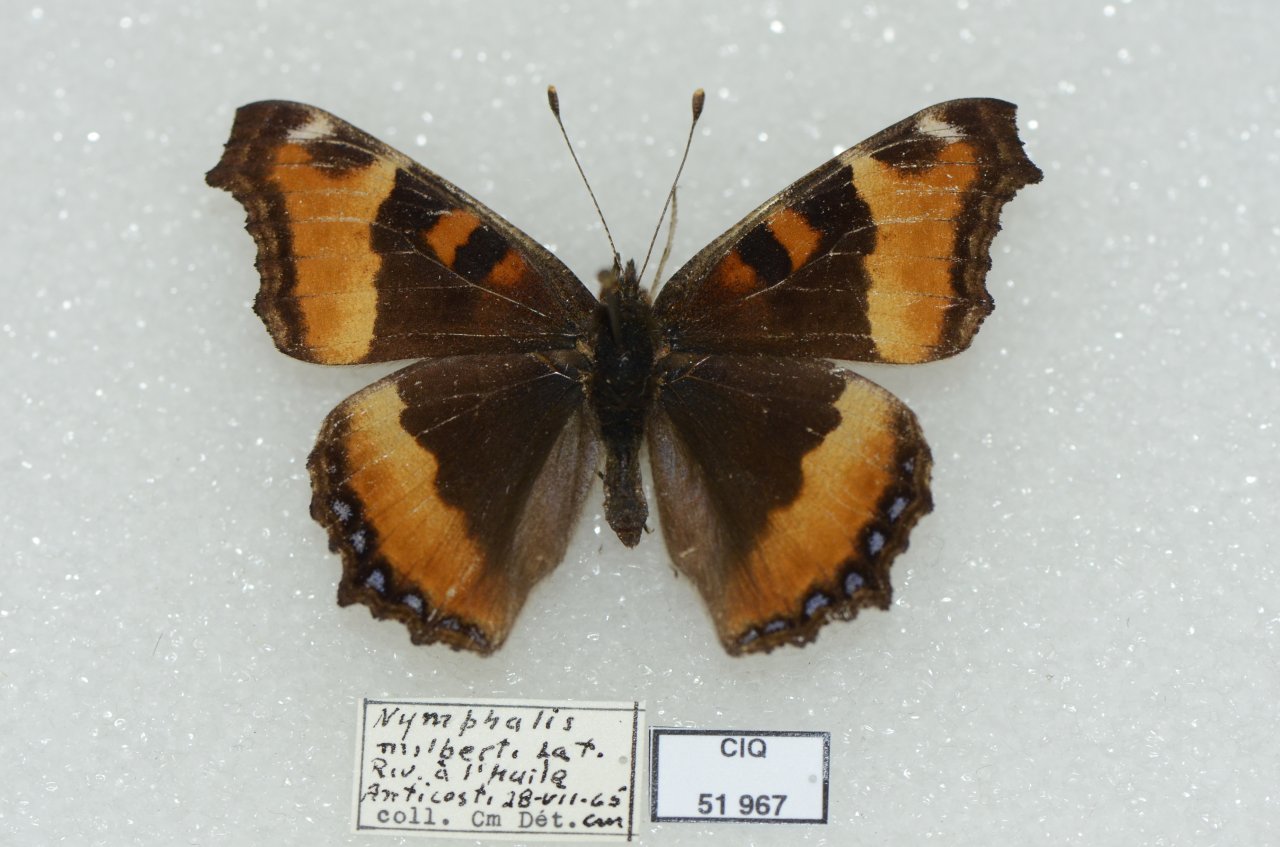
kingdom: Animalia
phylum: Arthropoda
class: Insecta
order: Lepidoptera
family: Nymphalidae
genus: Aglais
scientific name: Aglais milberti
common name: Milbert's Tortoiseshell
